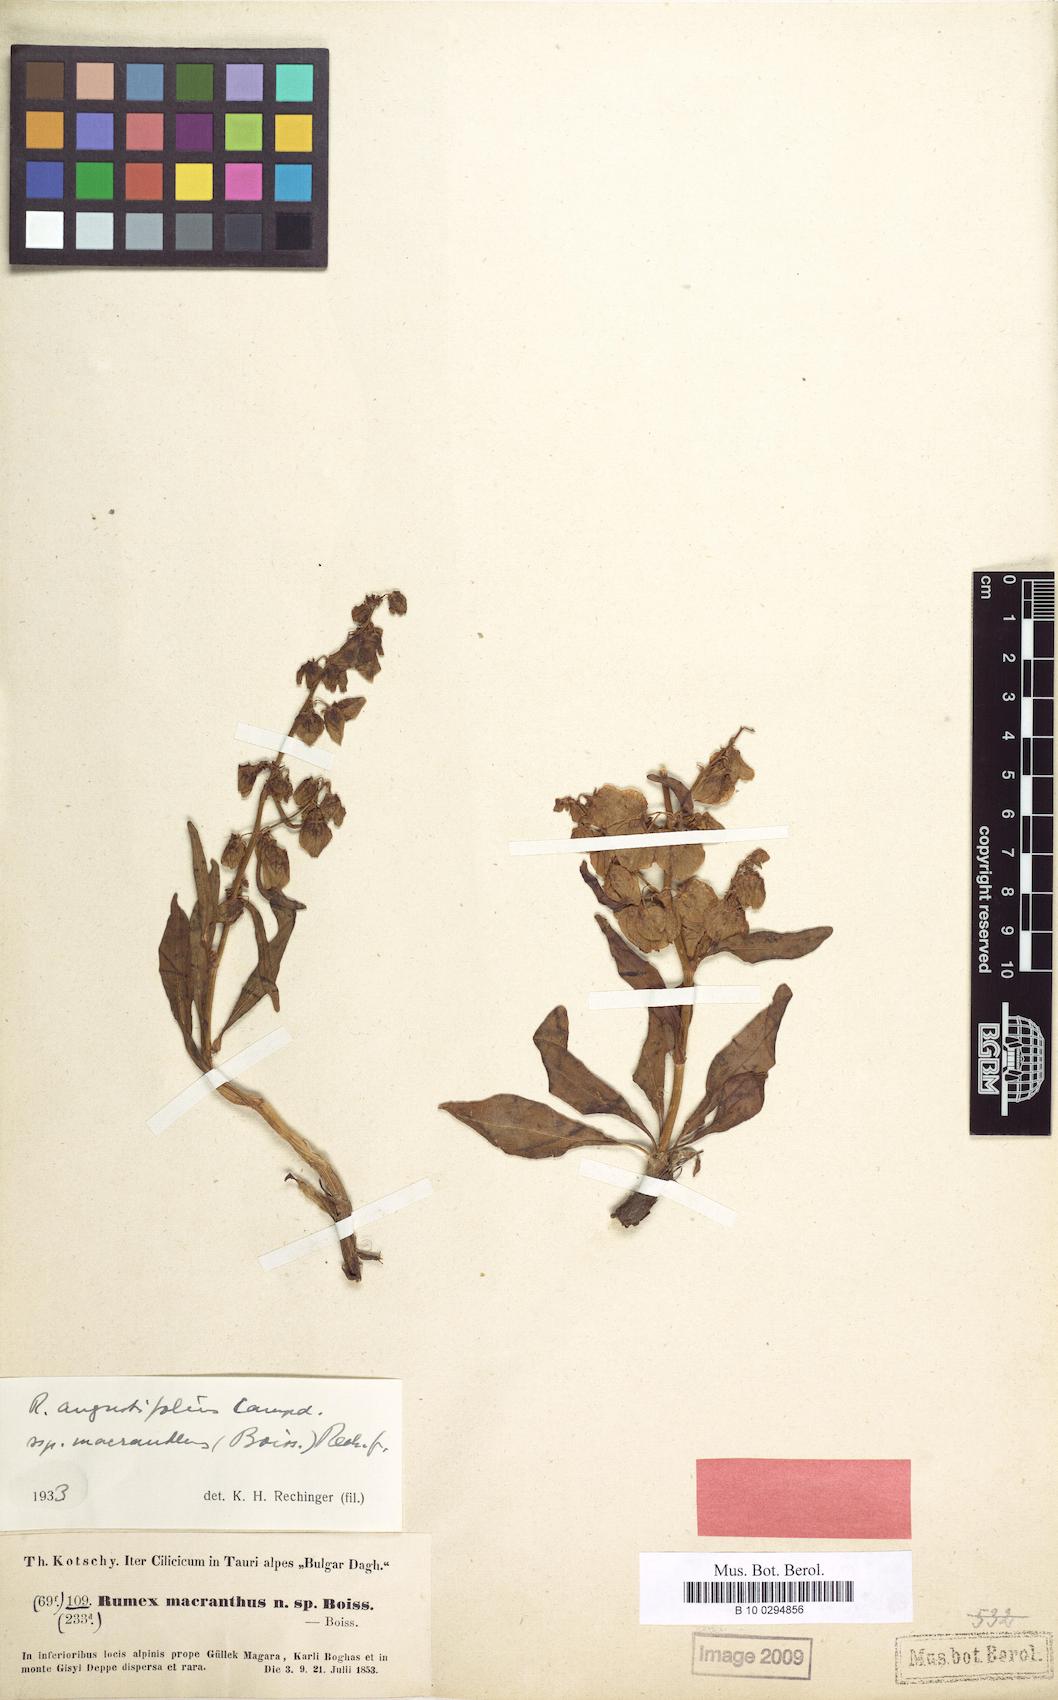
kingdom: Plantae
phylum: Tracheophyta
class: Magnoliopsida
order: Caryophyllales
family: Polygonaceae
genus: Rumex
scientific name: Rumex angustifolius
